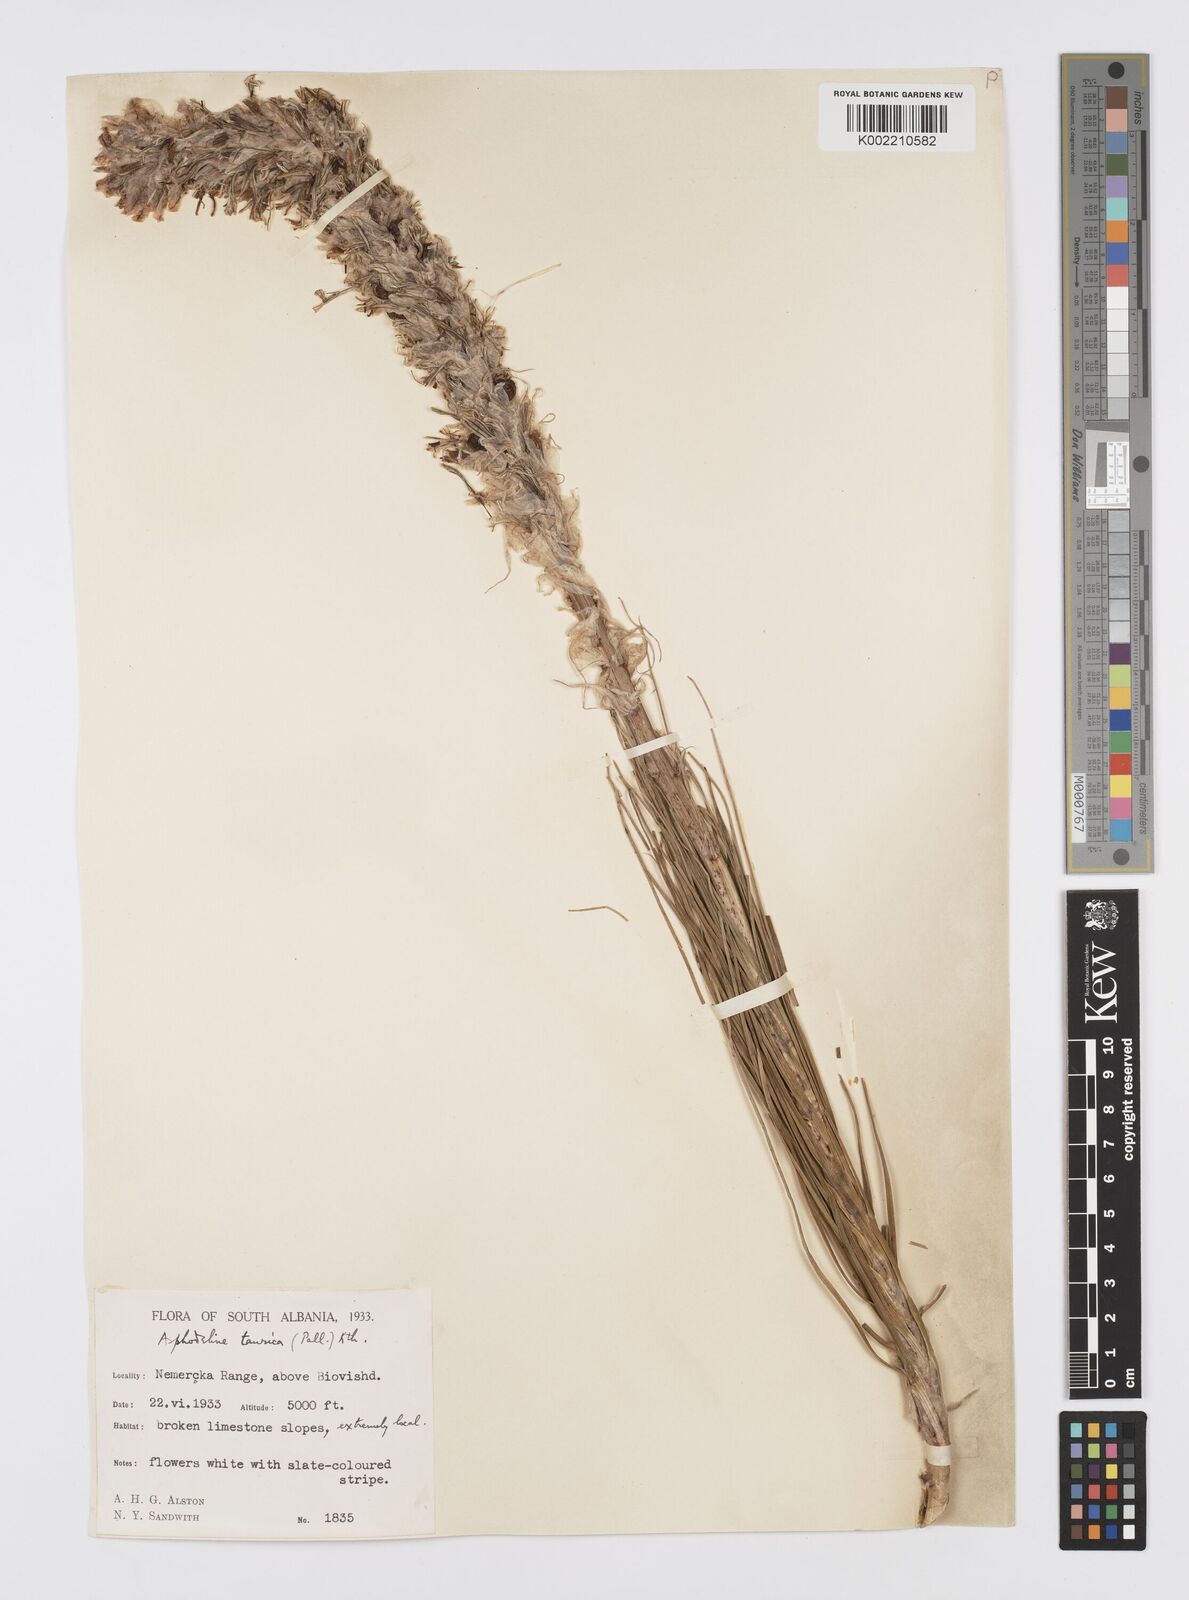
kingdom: Plantae
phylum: Tracheophyta
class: Liliopsida
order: Asparagales
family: Asphodelaceae
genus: Asphodeline
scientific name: Asphodeline taurica
